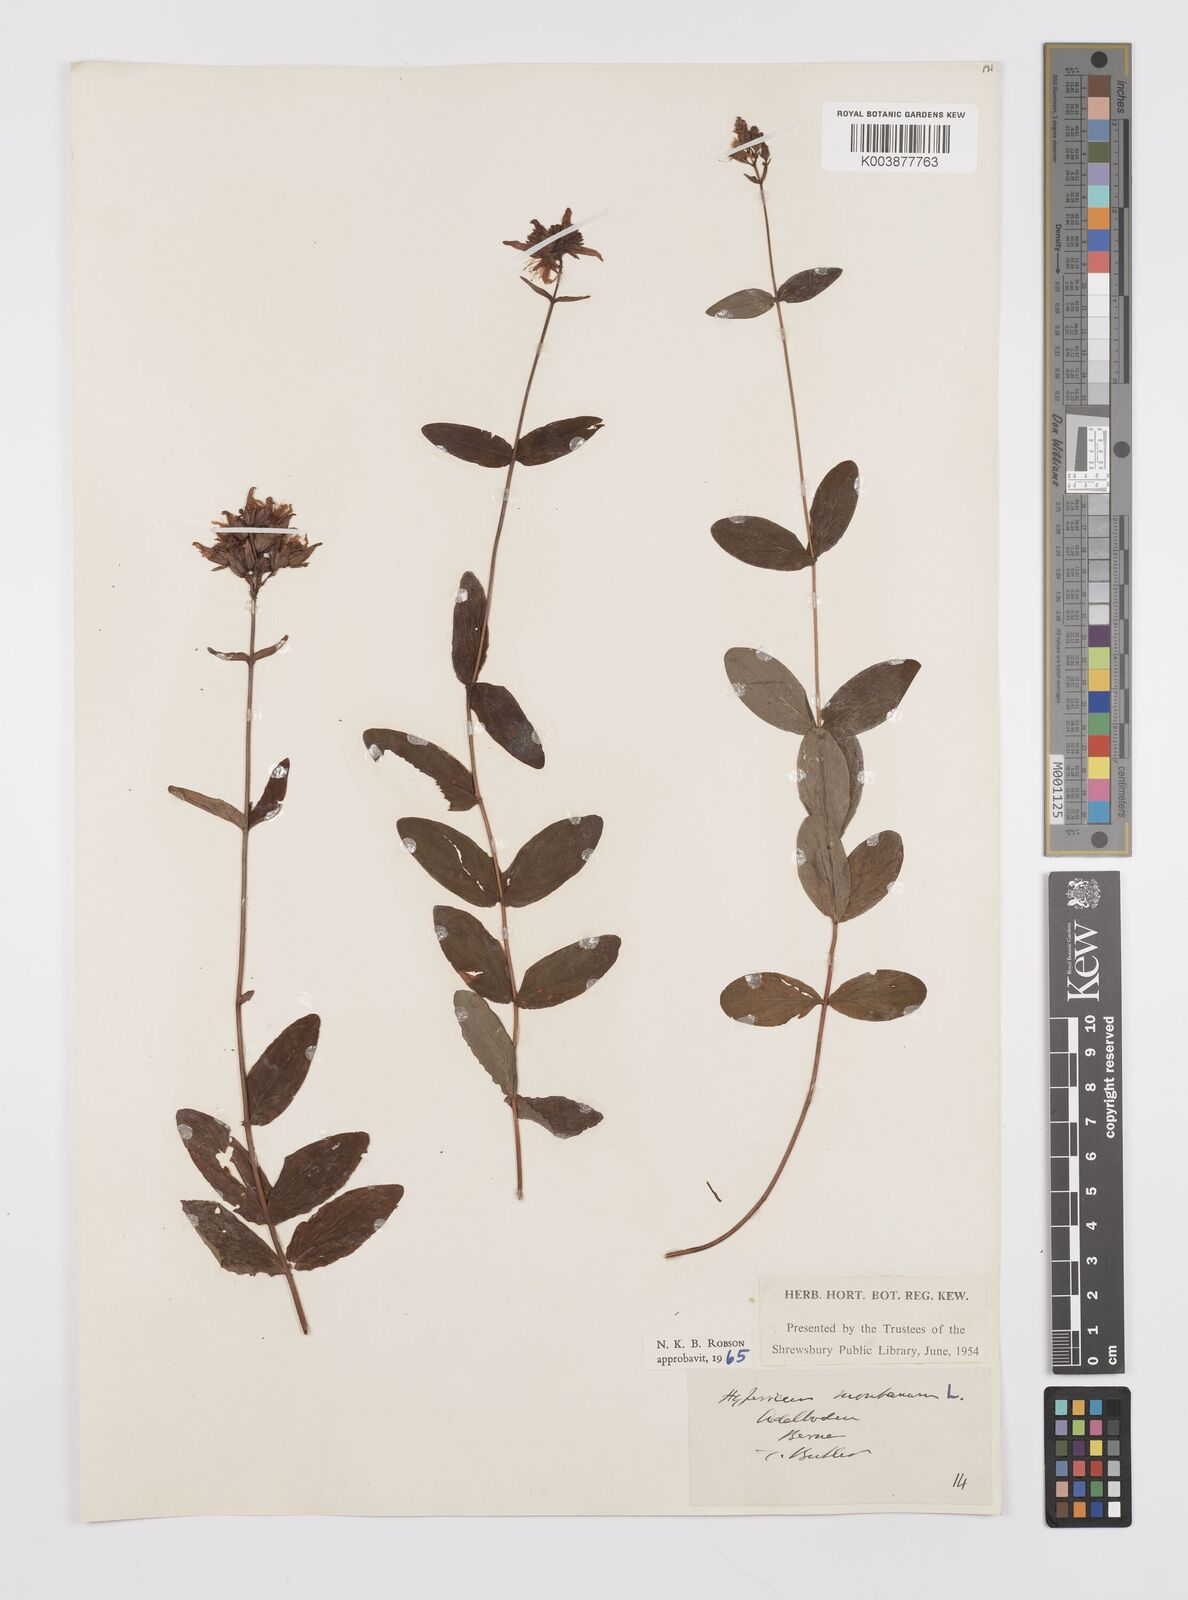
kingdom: Plantae
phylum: Tracheophyta
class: Magnoliopsida
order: Malpighiales
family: Hypericaceae
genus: Hypericum
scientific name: Hypericum montanum
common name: Pale st. john's-wort
